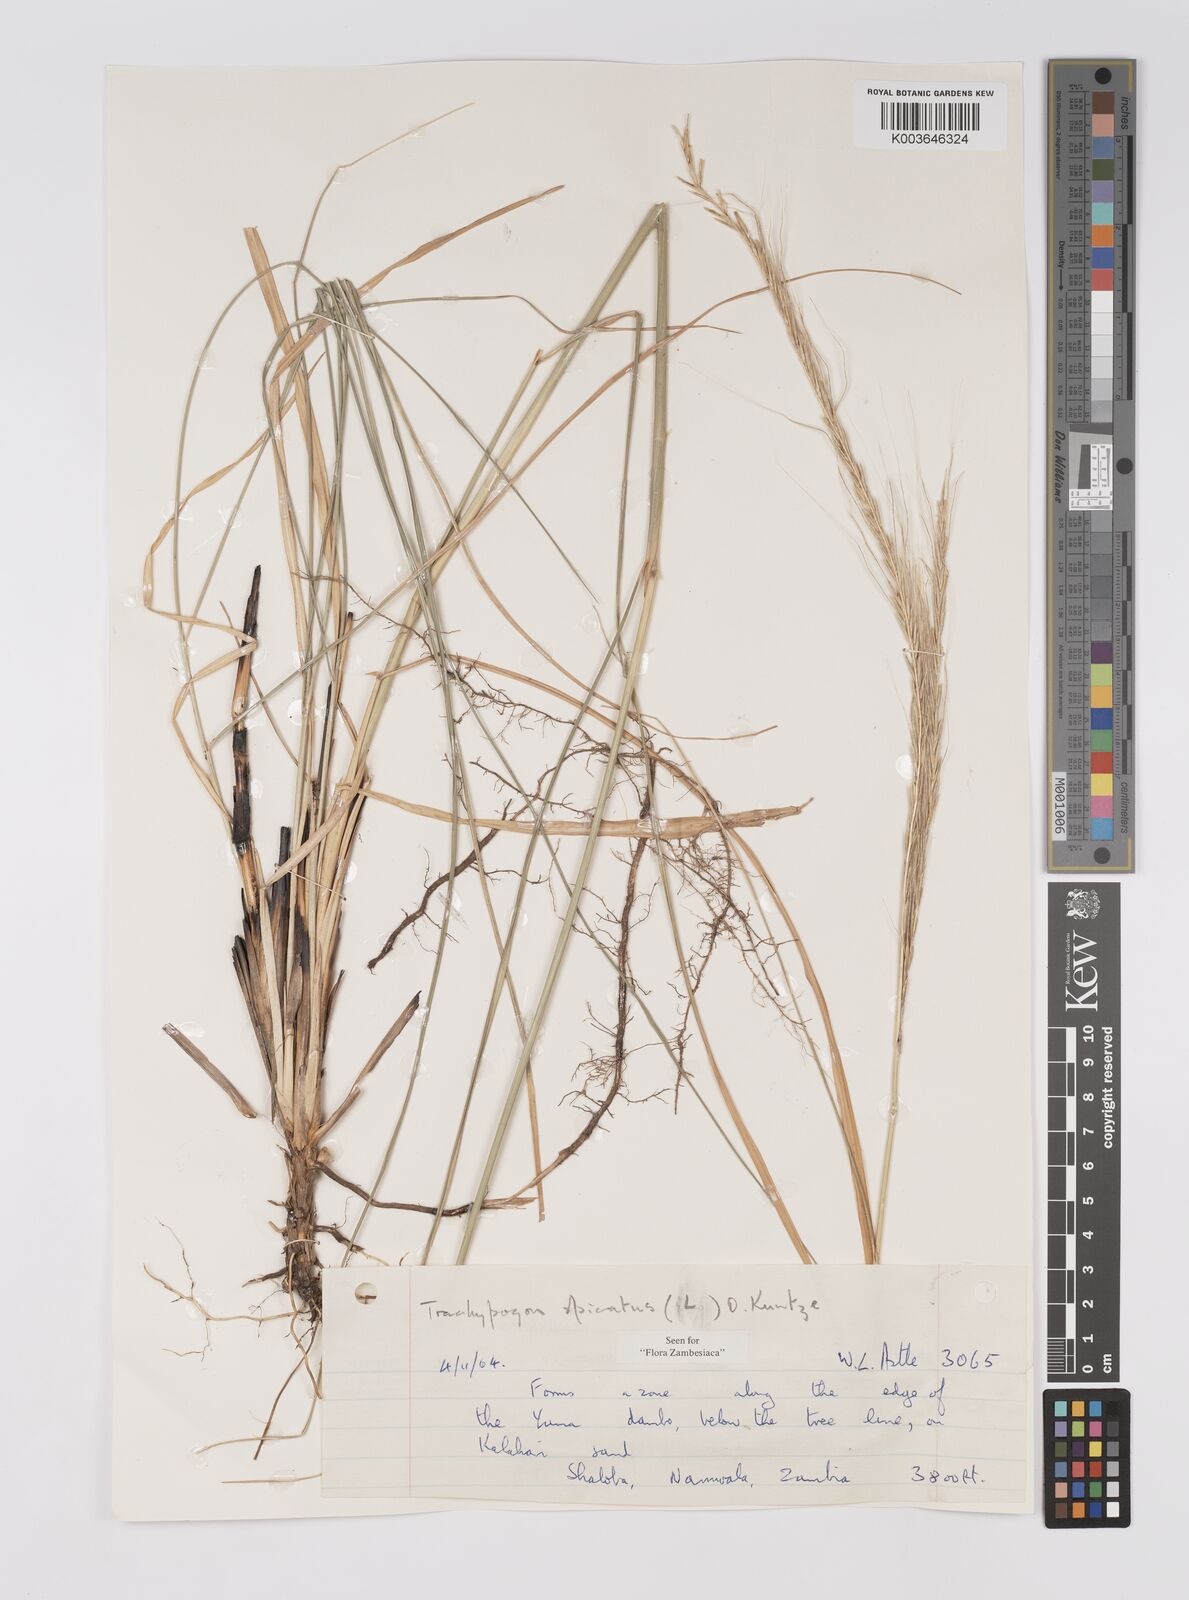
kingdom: Plantae
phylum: Tracheophyta
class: Liliopsida
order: Poales
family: Poaceae
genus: Trachypogon
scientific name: Trachypogon spicatus
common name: Crinkle-awn
